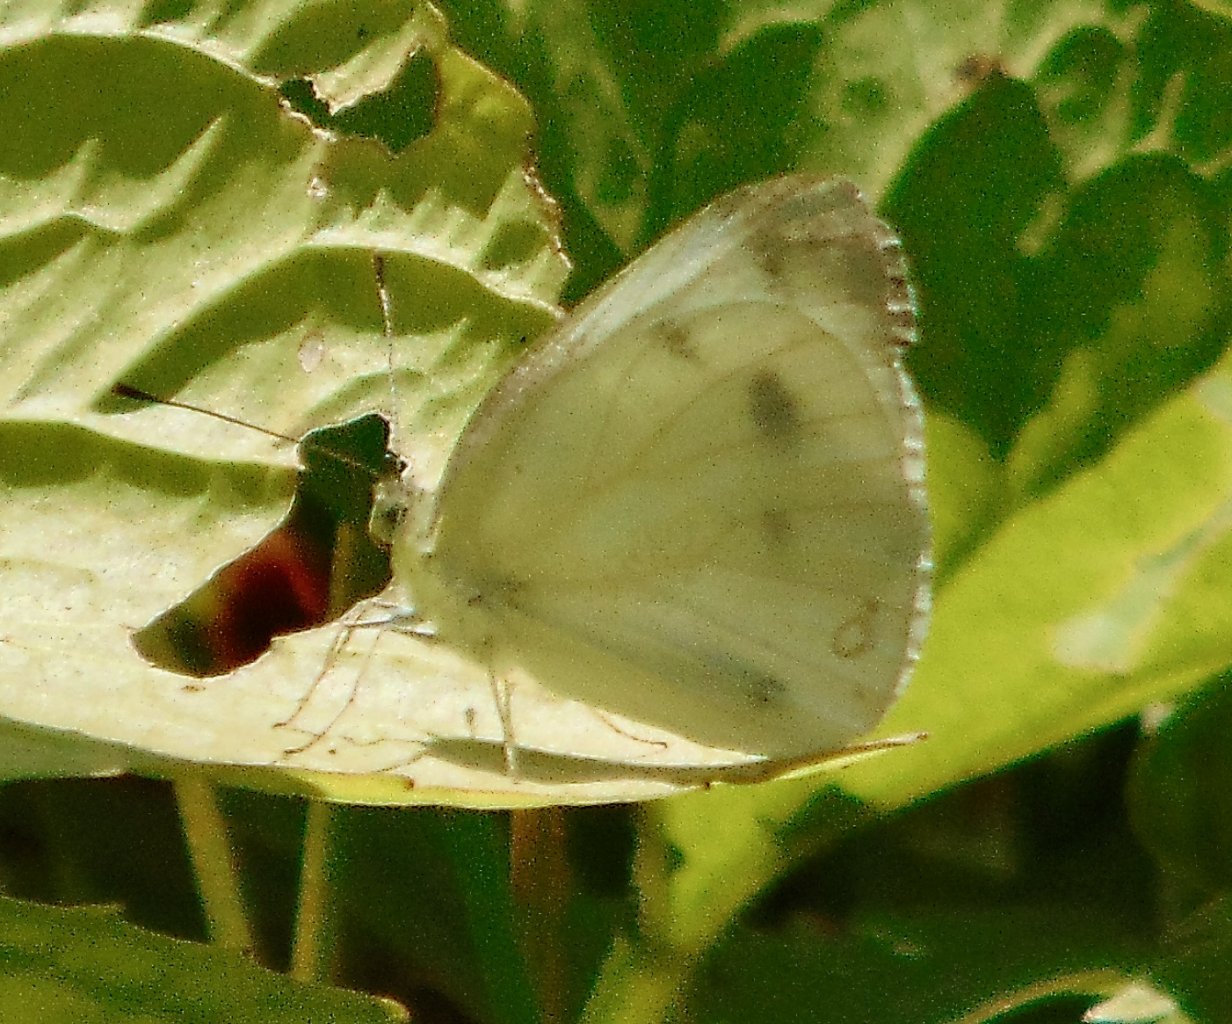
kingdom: Animalia
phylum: Arthropoda
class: Insecta
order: Lepidoptera
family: Pieridae
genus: Pieris
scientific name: Pieris rapae
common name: Cabbage White
